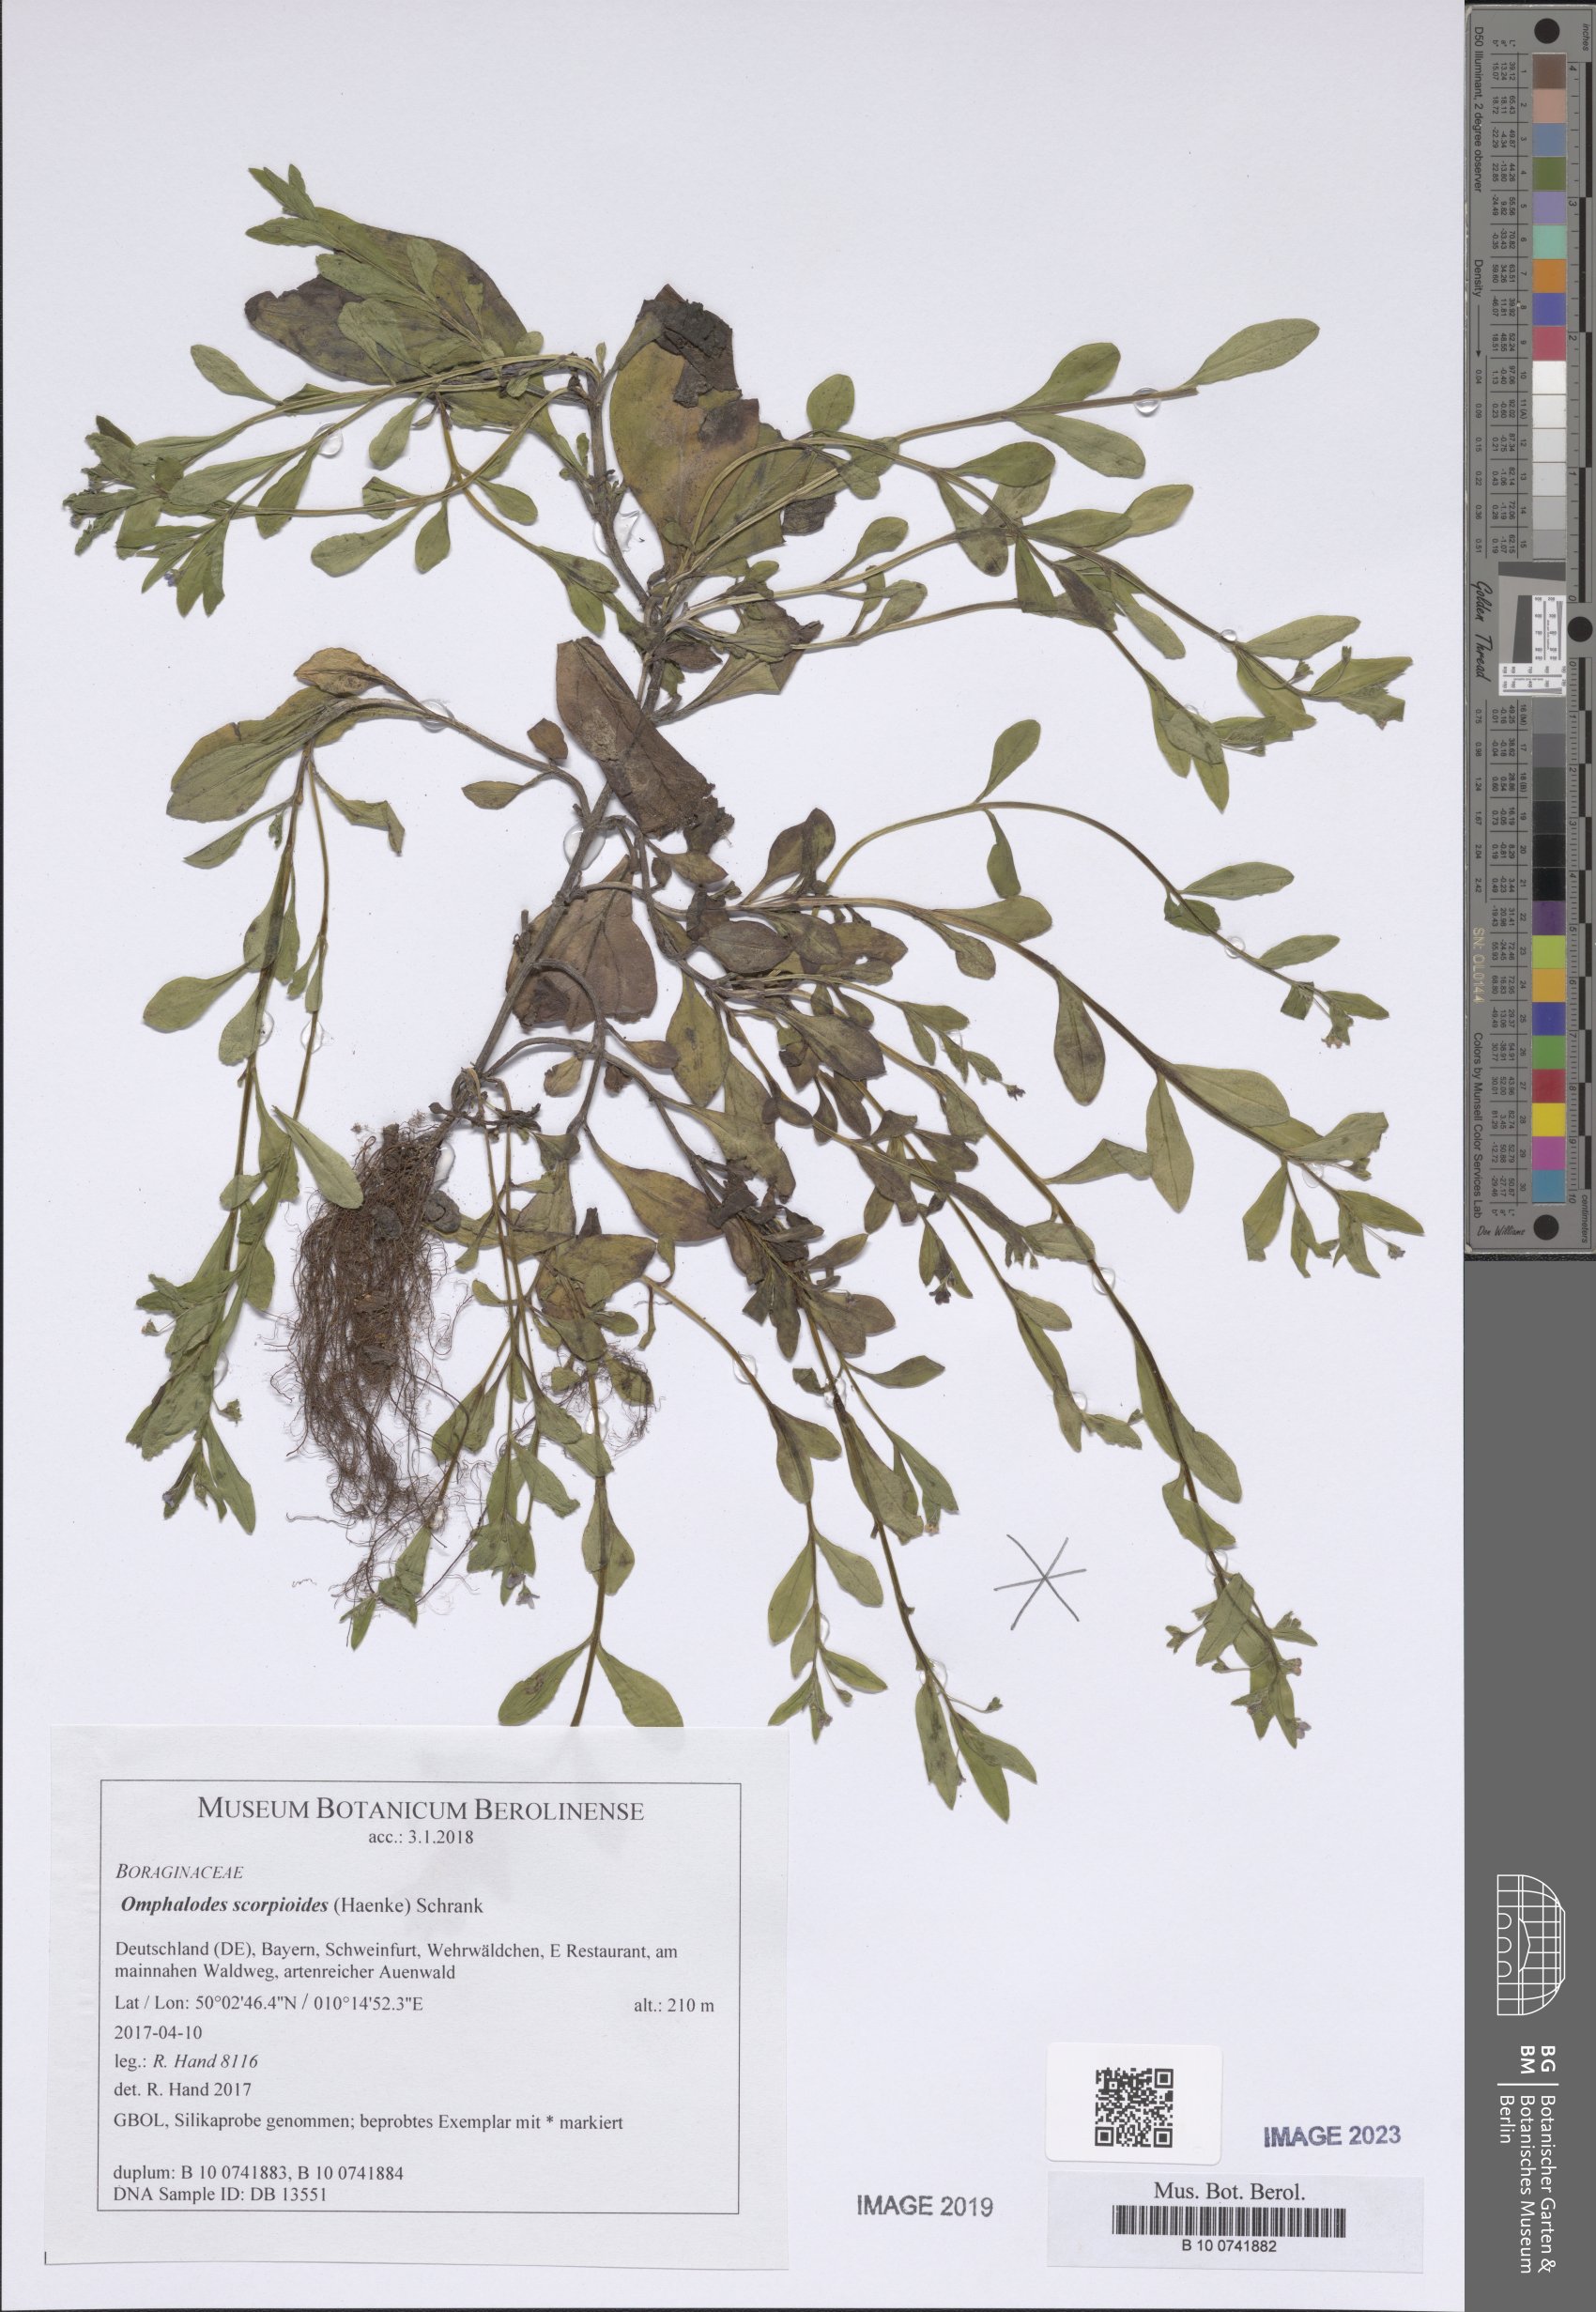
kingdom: Plantae
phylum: Tracheophyta
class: Magnoliopsida
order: Boraginales
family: Boraginaceae
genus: Memoremea
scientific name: Memoremea scorpioides
